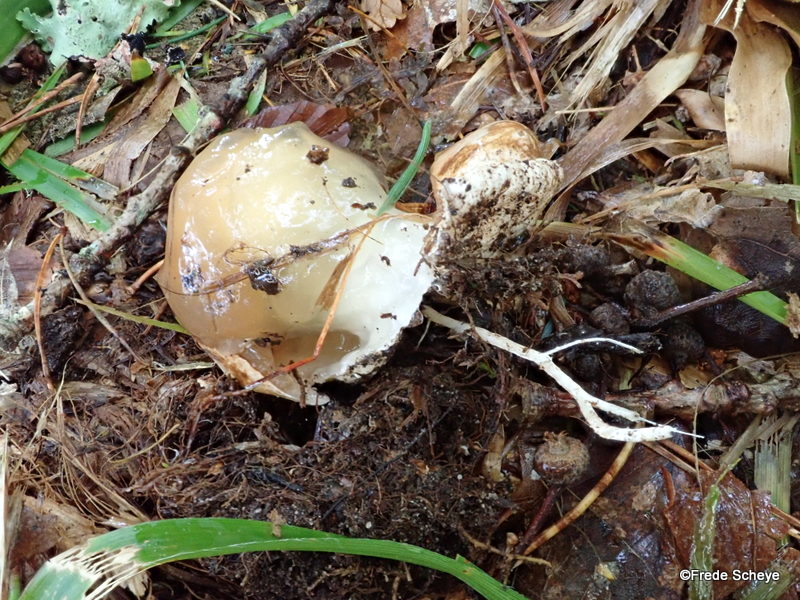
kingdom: Fungi
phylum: Basidiomycota
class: Agaricomycetes
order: Phallales
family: Phallaceae
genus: Phallus
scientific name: Phallus impudicus
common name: almindelig stinksvamp
